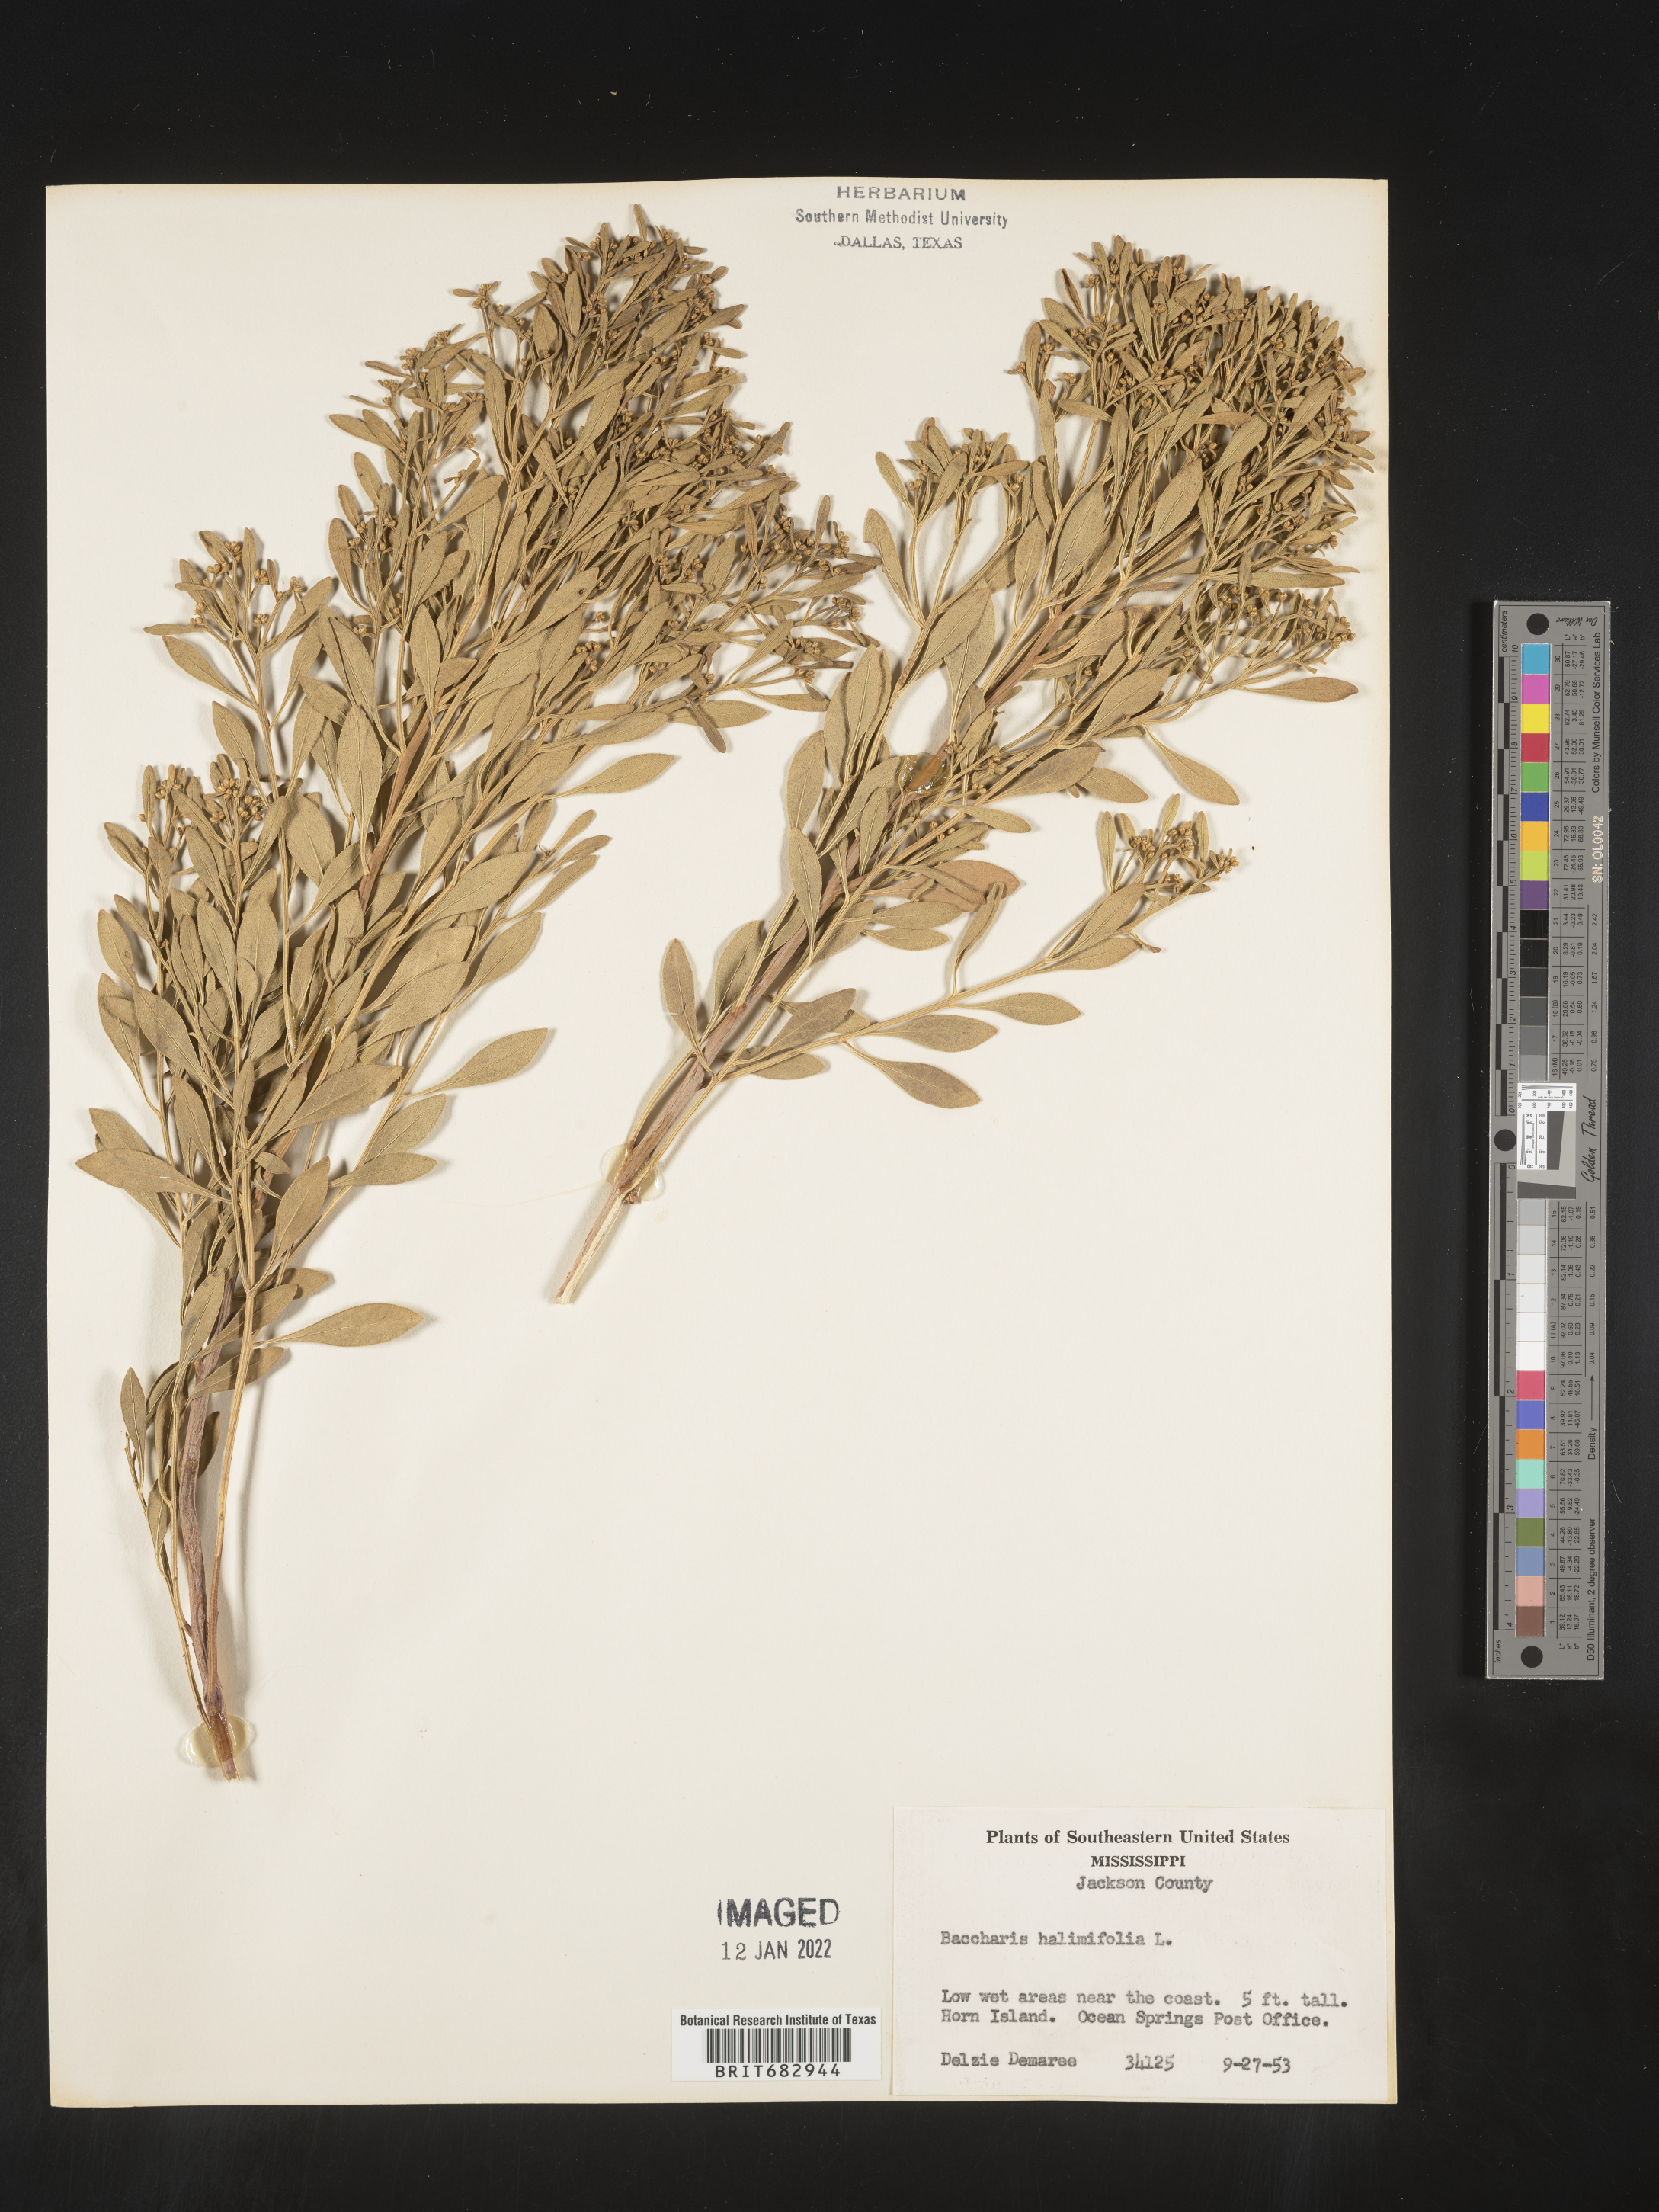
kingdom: Plantae
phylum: Tracheophyta
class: Magnoliopsida
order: Asterales
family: Asteraceae
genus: Nidorella
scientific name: Nidorella ivifolia
